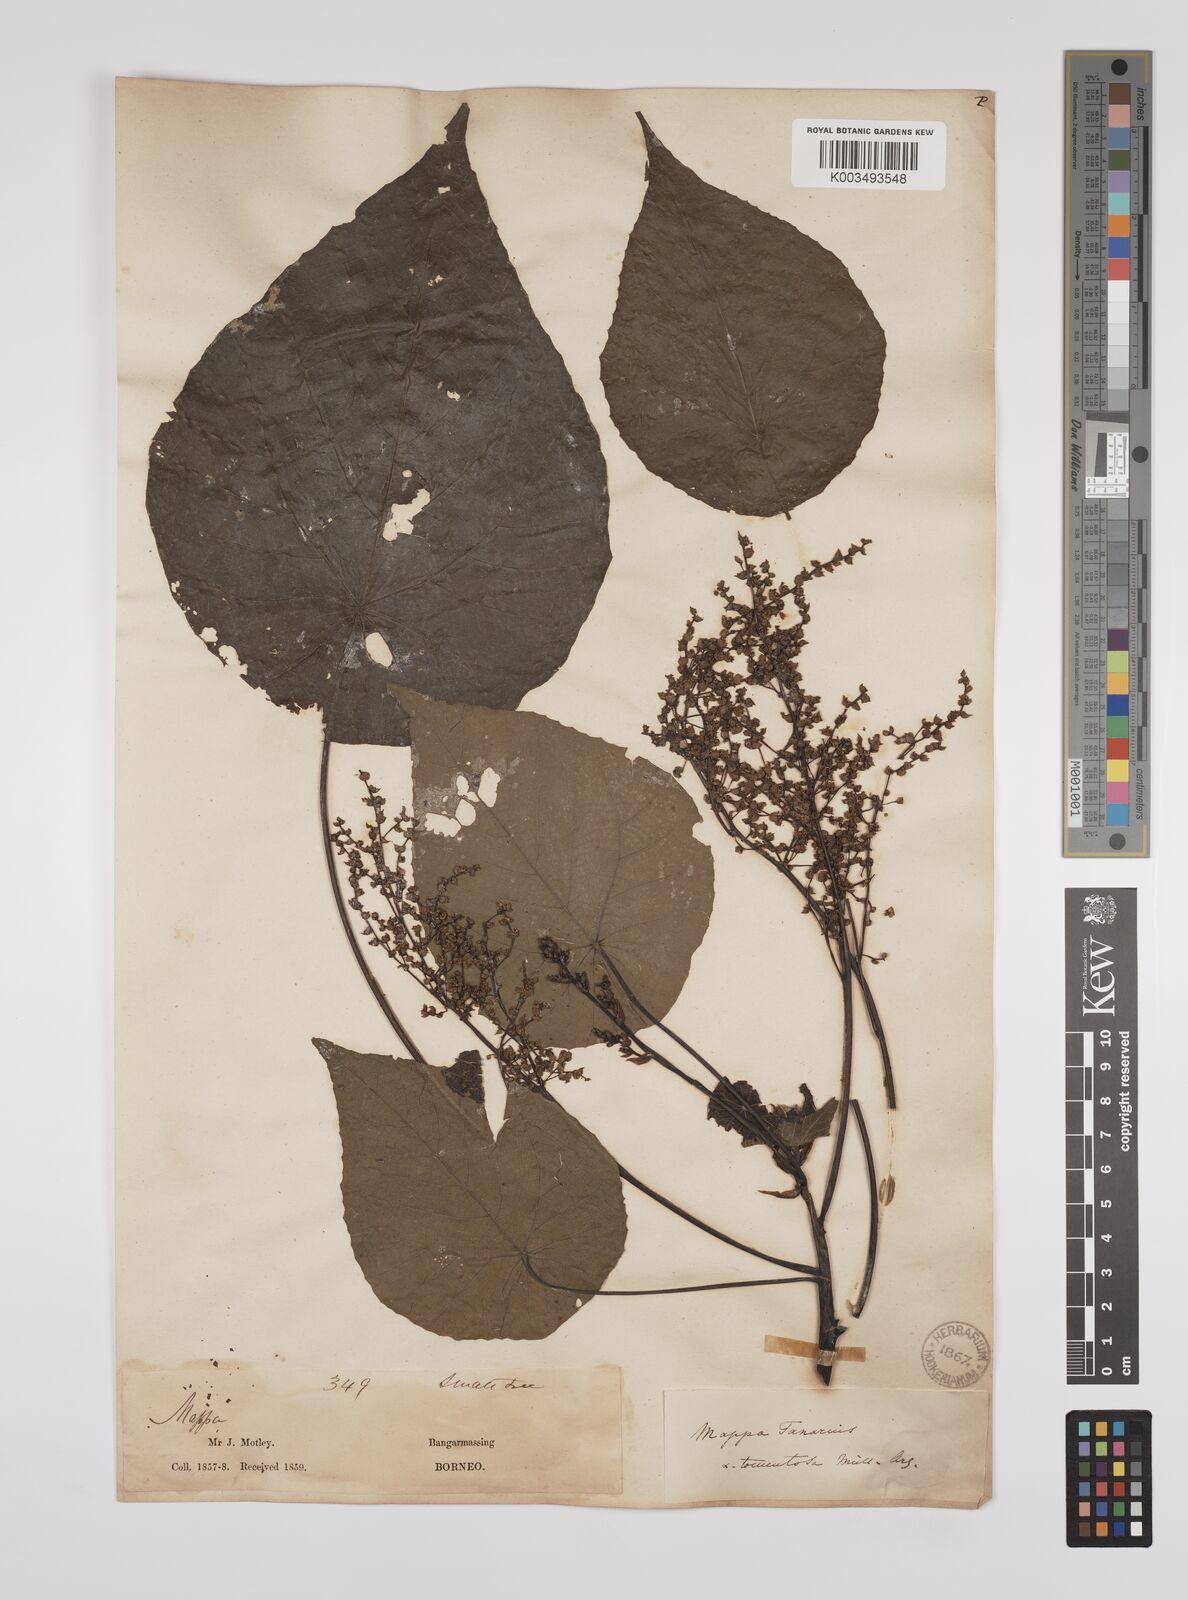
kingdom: Plantae
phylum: Tracheophyta
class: Magnoliopsida
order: Malpighiales
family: Euphorbiaceae
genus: Macaranga
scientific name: Macaranga tanarius
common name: Parasol leaf tree
